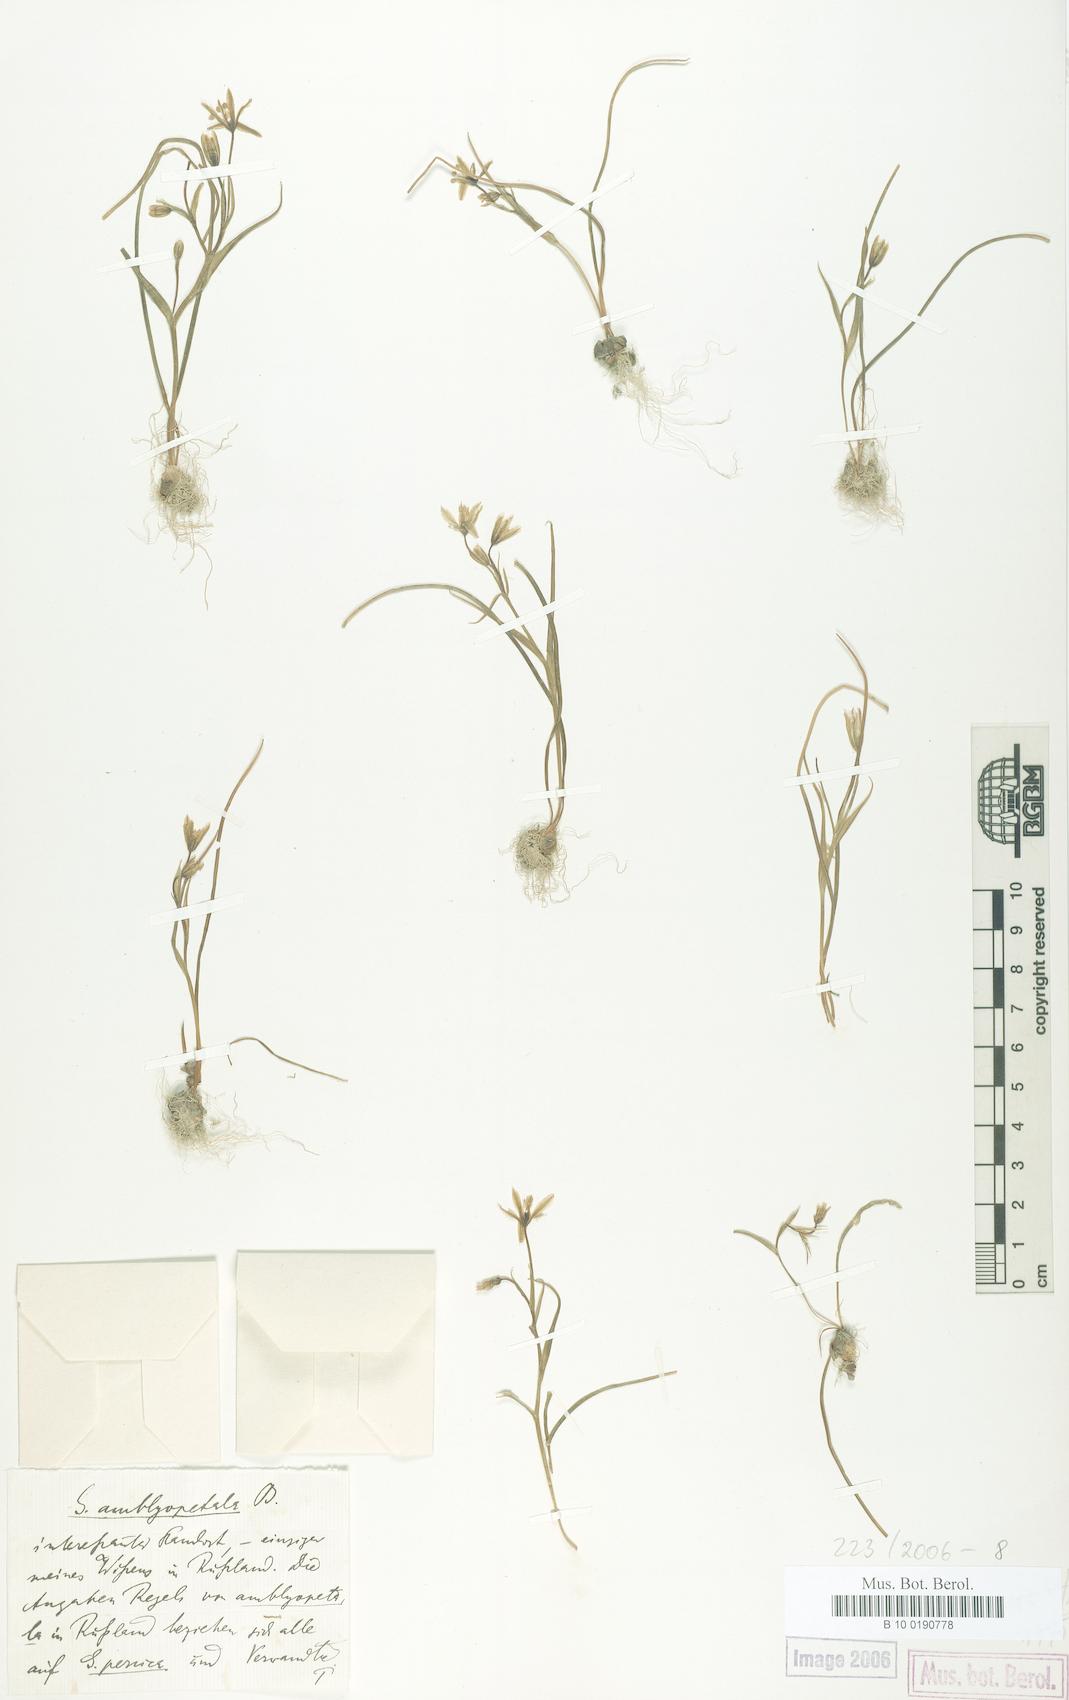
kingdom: Plantae
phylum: Tracheophyta
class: Liliopsida
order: Liliales
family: Liliaceae
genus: Gagea
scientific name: Gagea amblyopetala
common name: Blunt-flowered gagea
